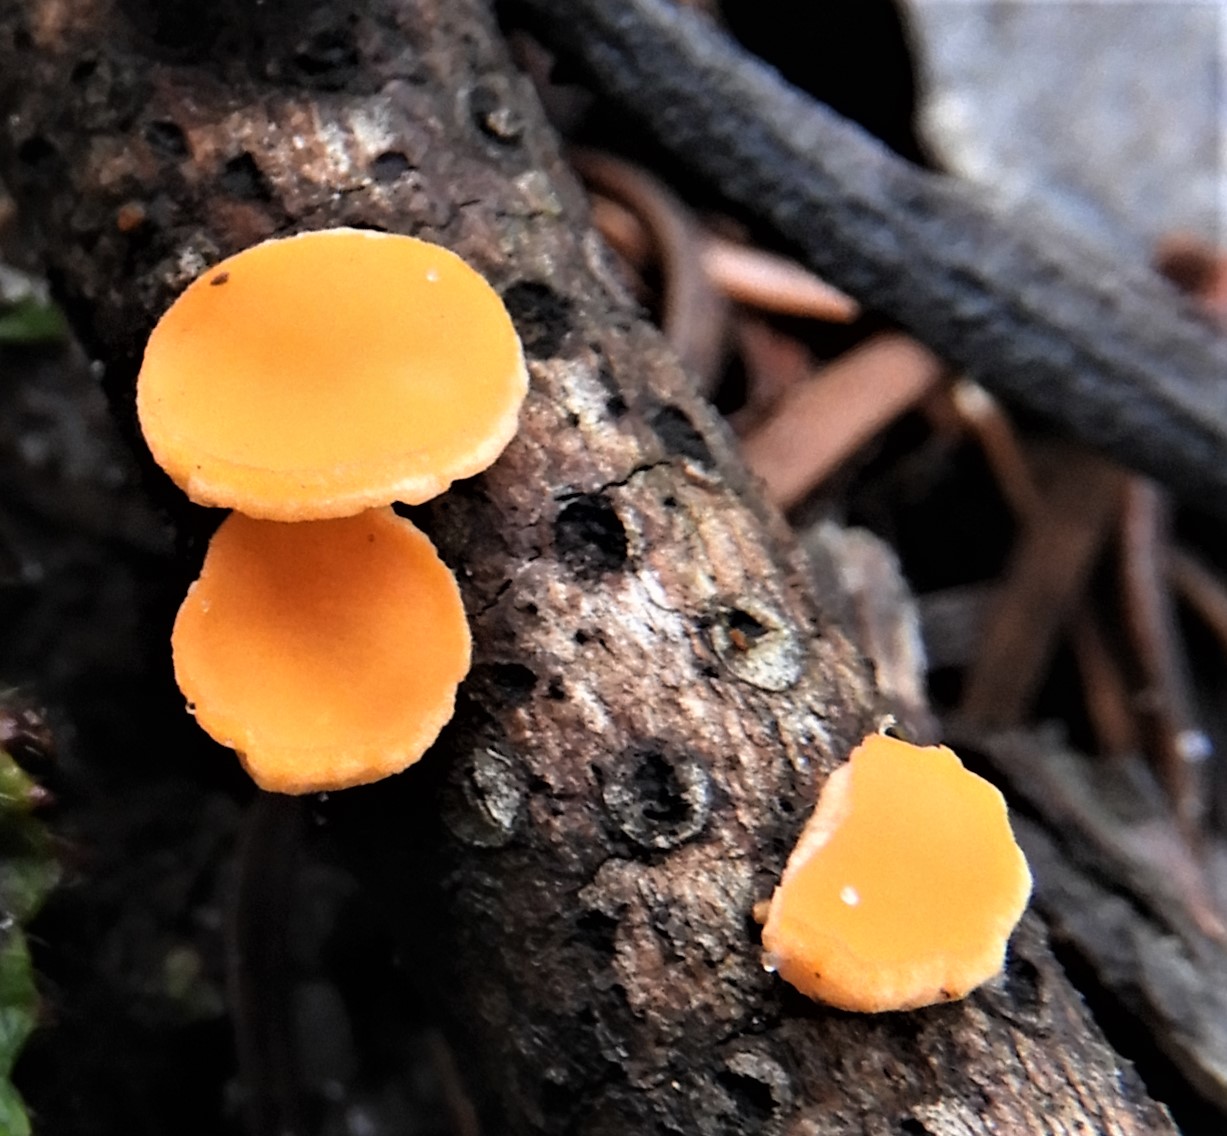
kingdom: Fungi
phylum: Ascomycota
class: Pezizomycetes
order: Pezizales
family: Sarcoscyphaceae
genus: Pithya
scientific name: Pithya vulgaris
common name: stor dukatbæger
